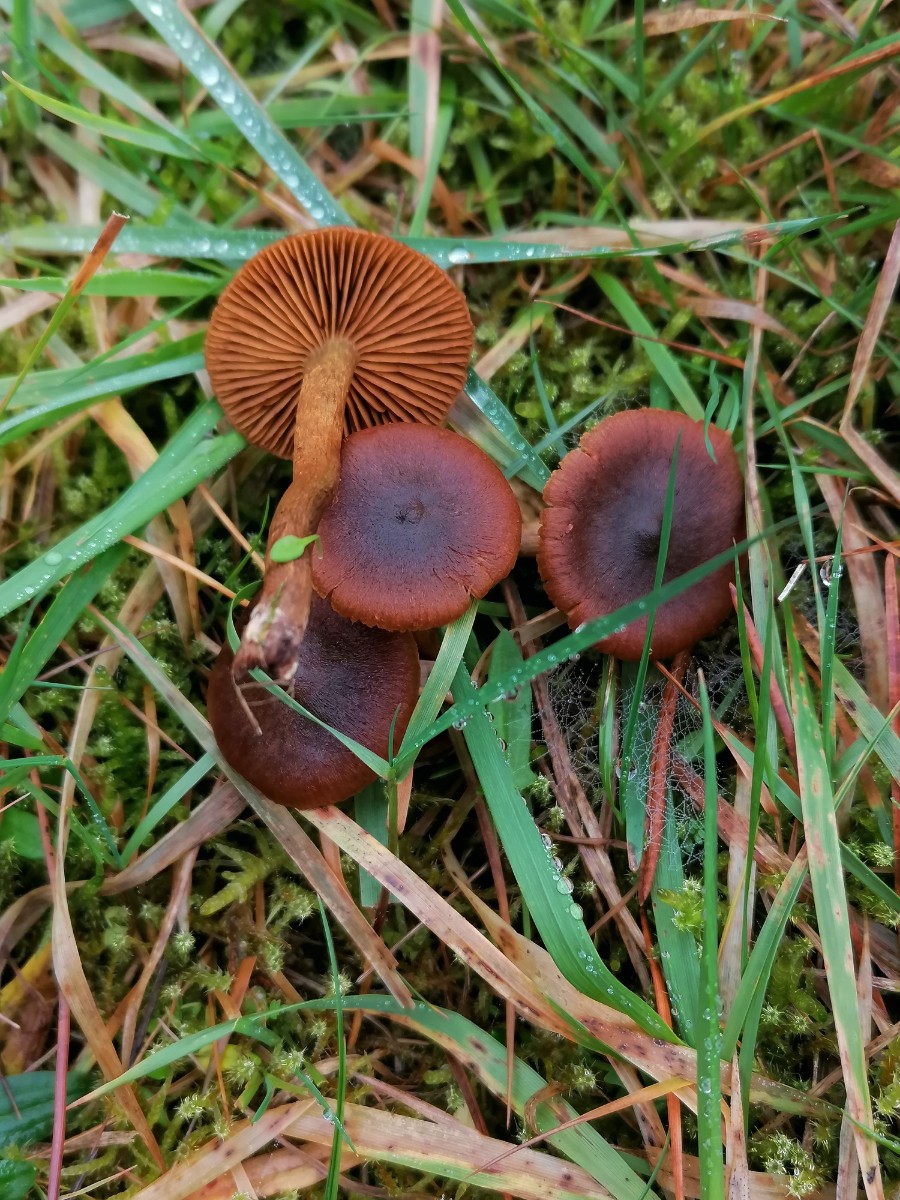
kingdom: Fungi
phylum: Basidiomycota
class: Agaricomycetes
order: Agaricales
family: Cortinariaceae
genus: Cortinarius
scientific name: Cortinarius cinnamomeus
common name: kanel-slørhat
